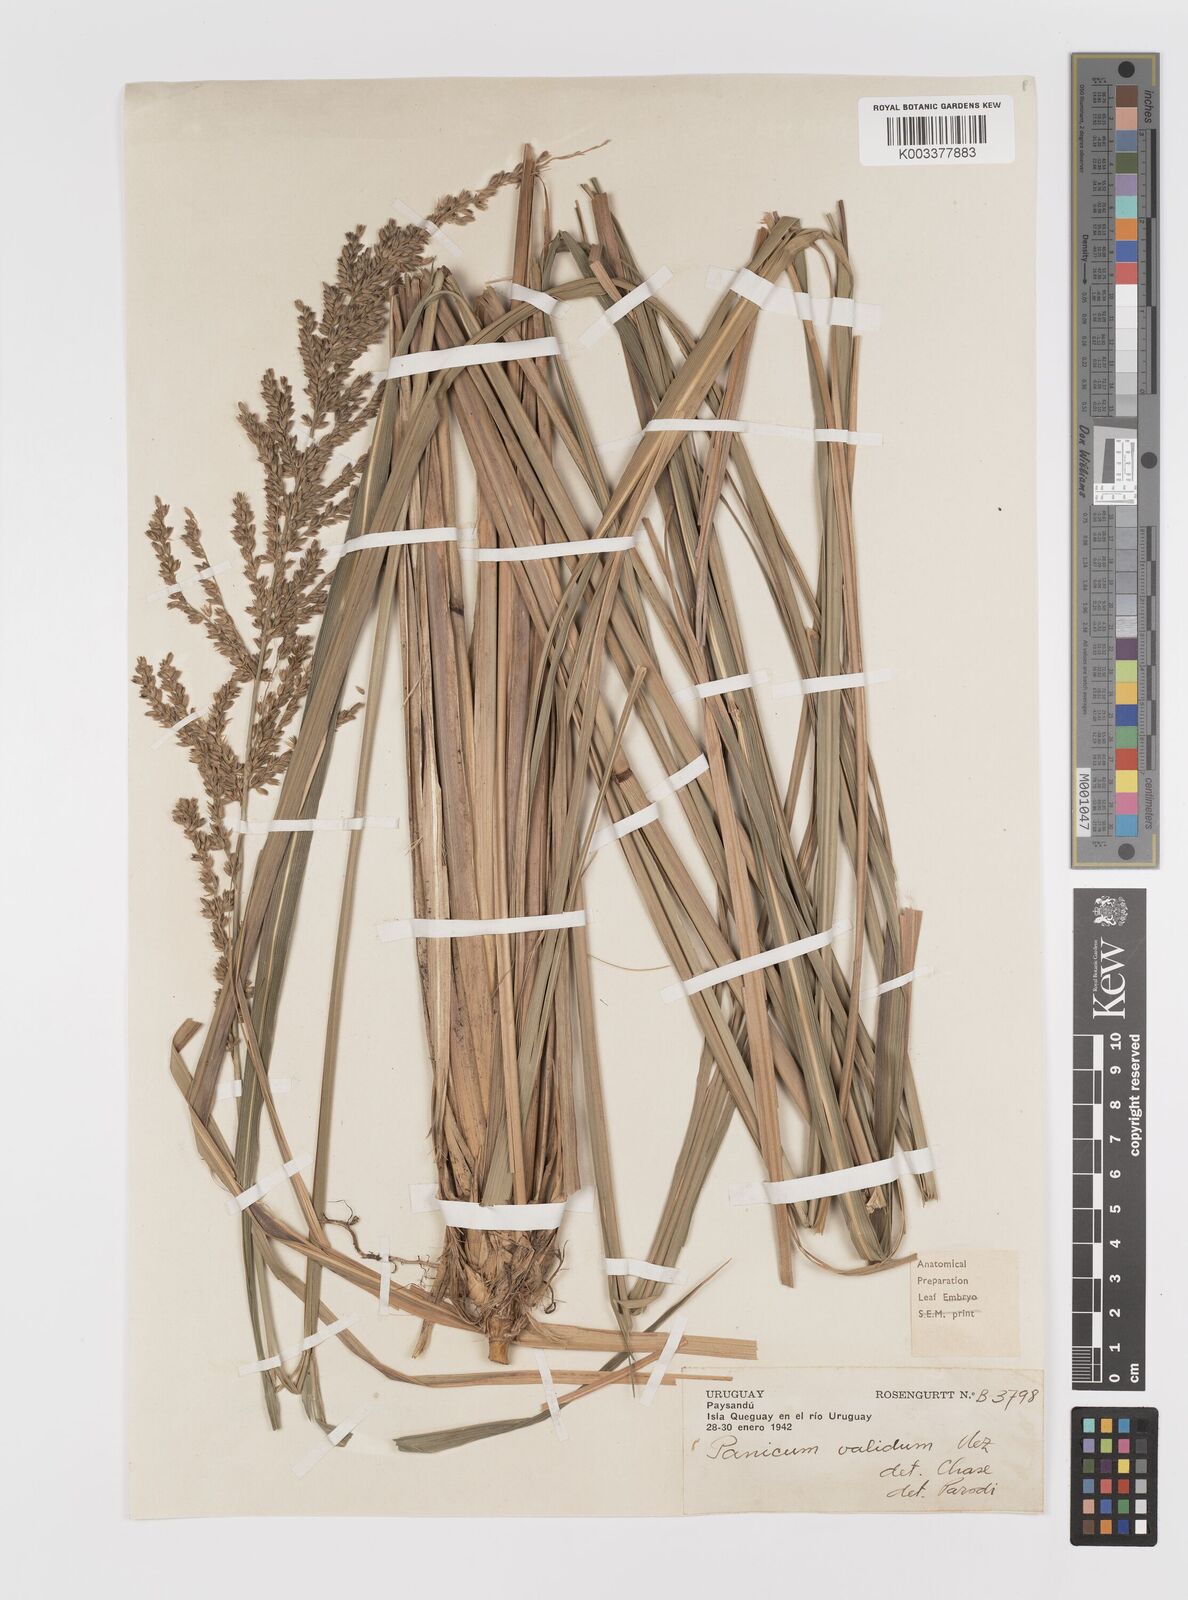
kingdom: Plantae
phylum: Tracheophyta
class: Liliopsida
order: Poales
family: Poaceae
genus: Osvaldoa
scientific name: Osvaldoa valida
